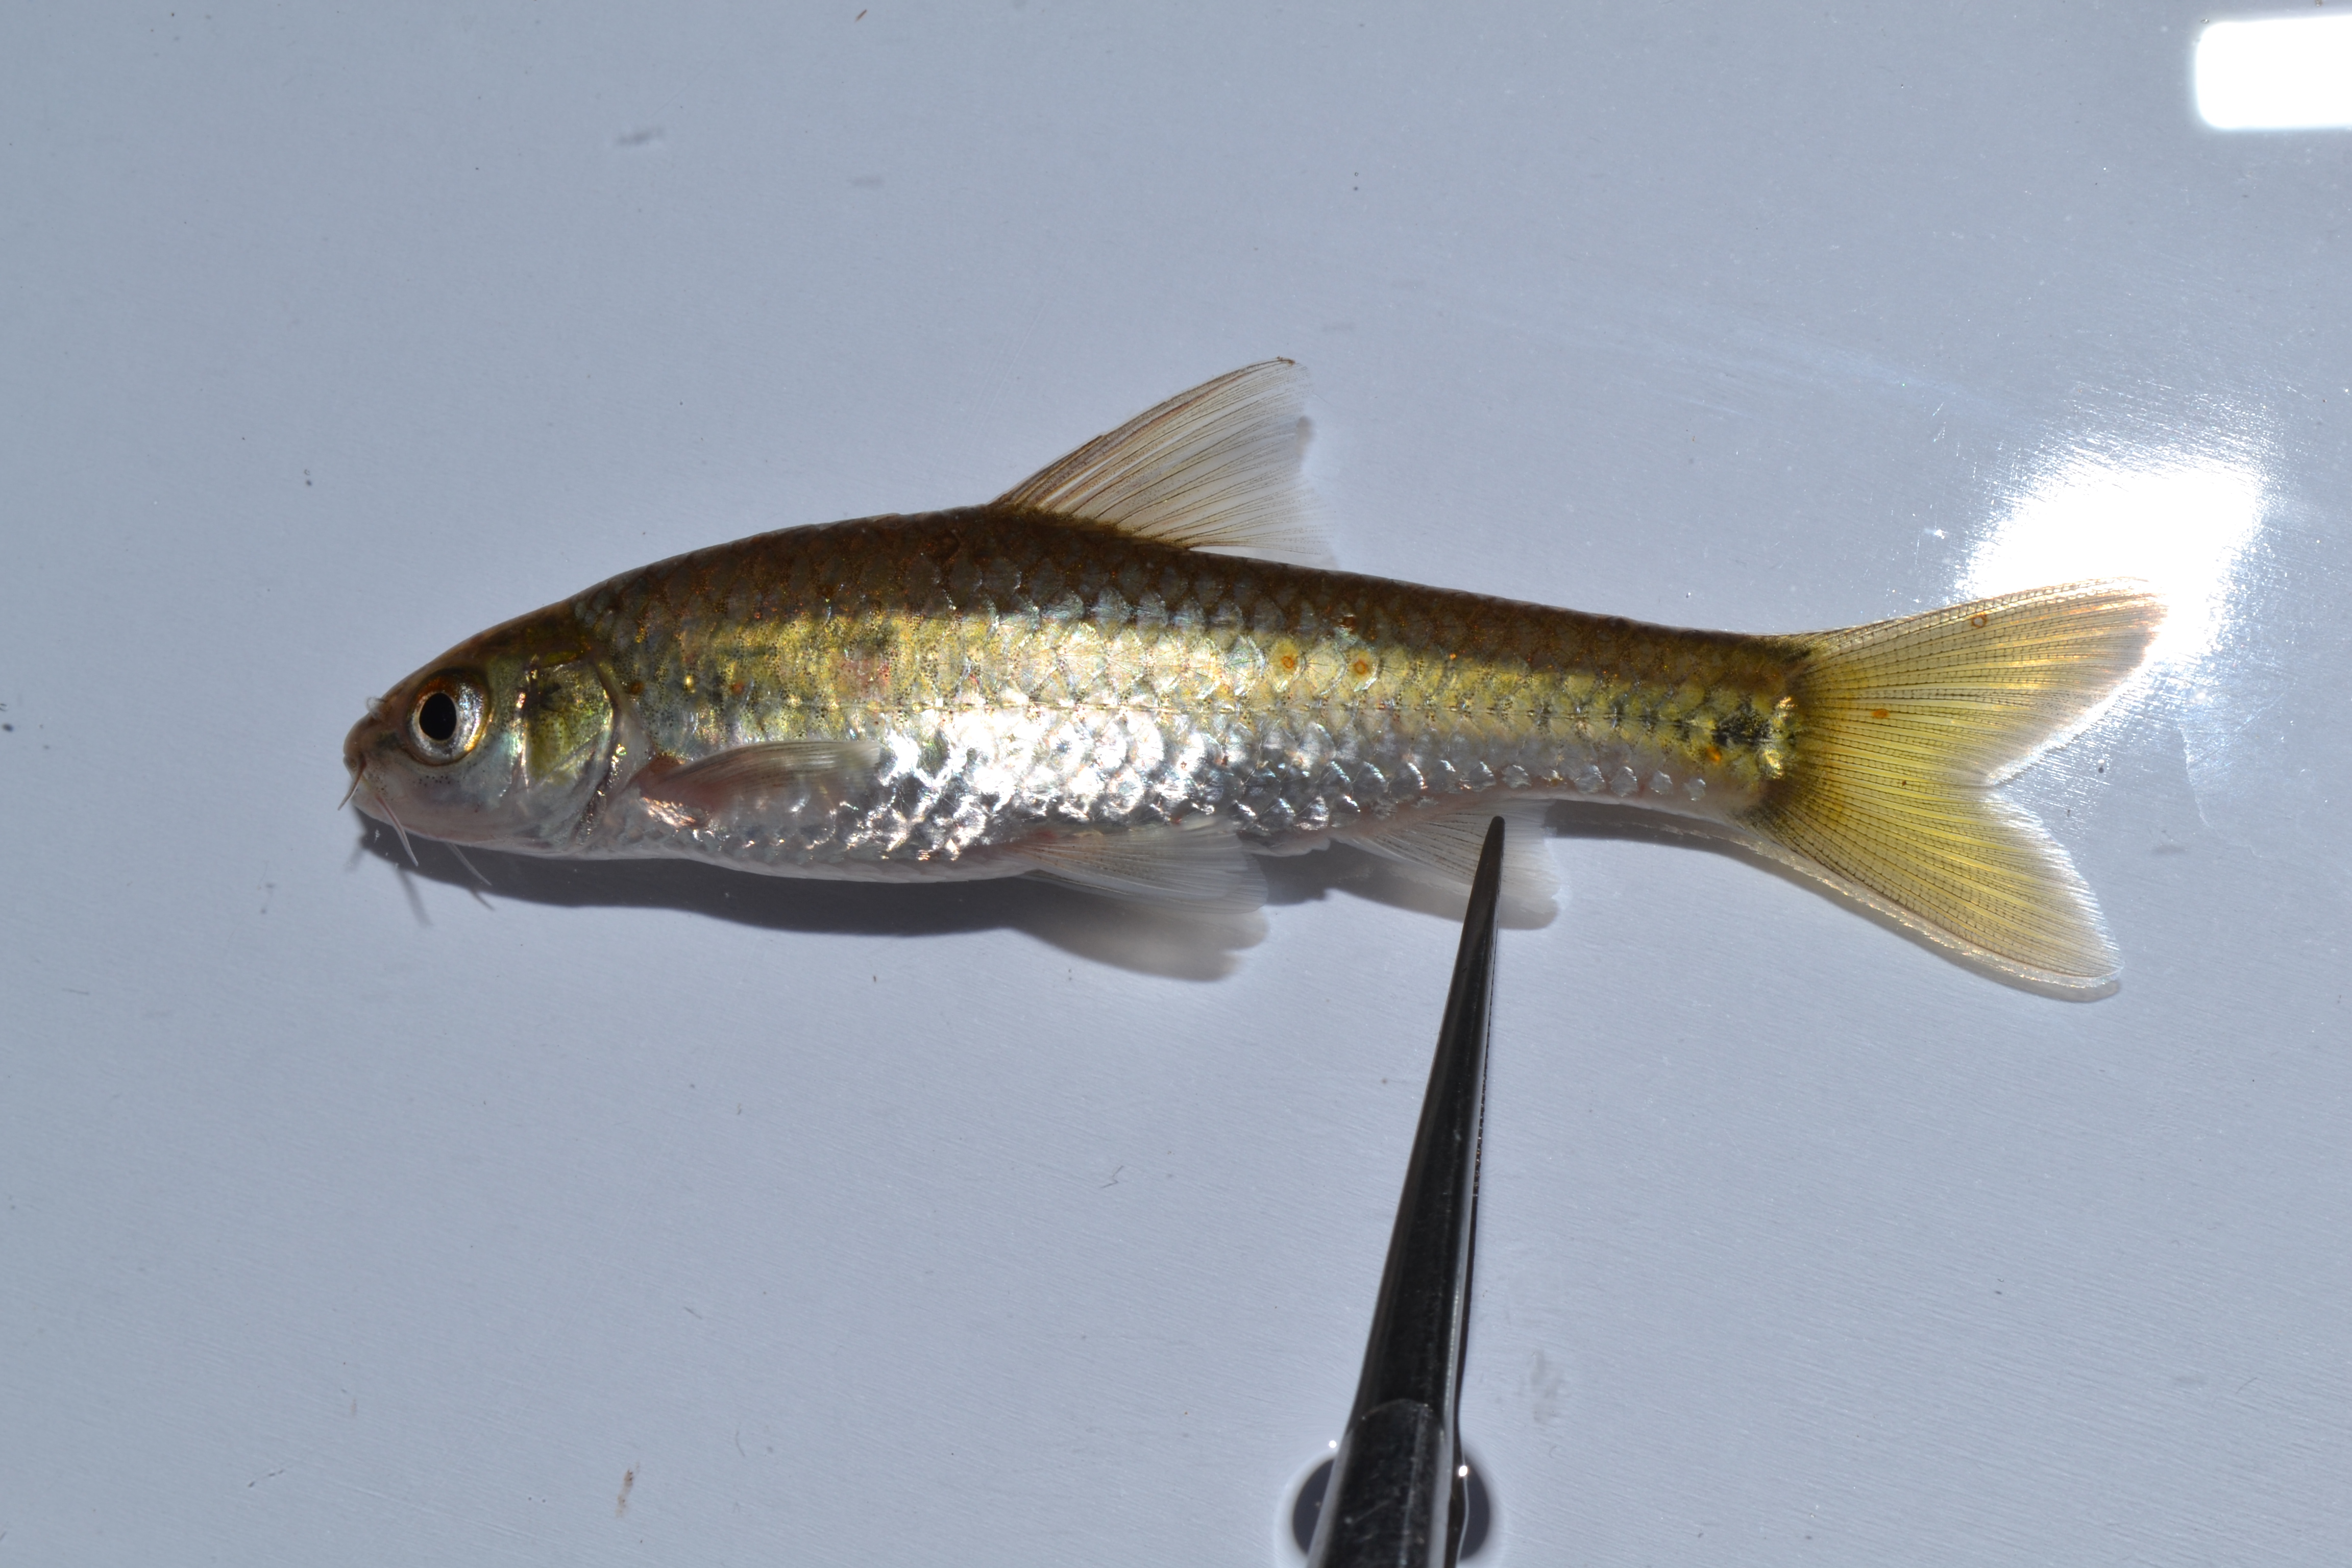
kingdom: Animalia
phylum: Chordata
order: Cypriniformes
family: Cyprinidae
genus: Enteromius
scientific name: Enteromius trimaculatus
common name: Threespot barb
